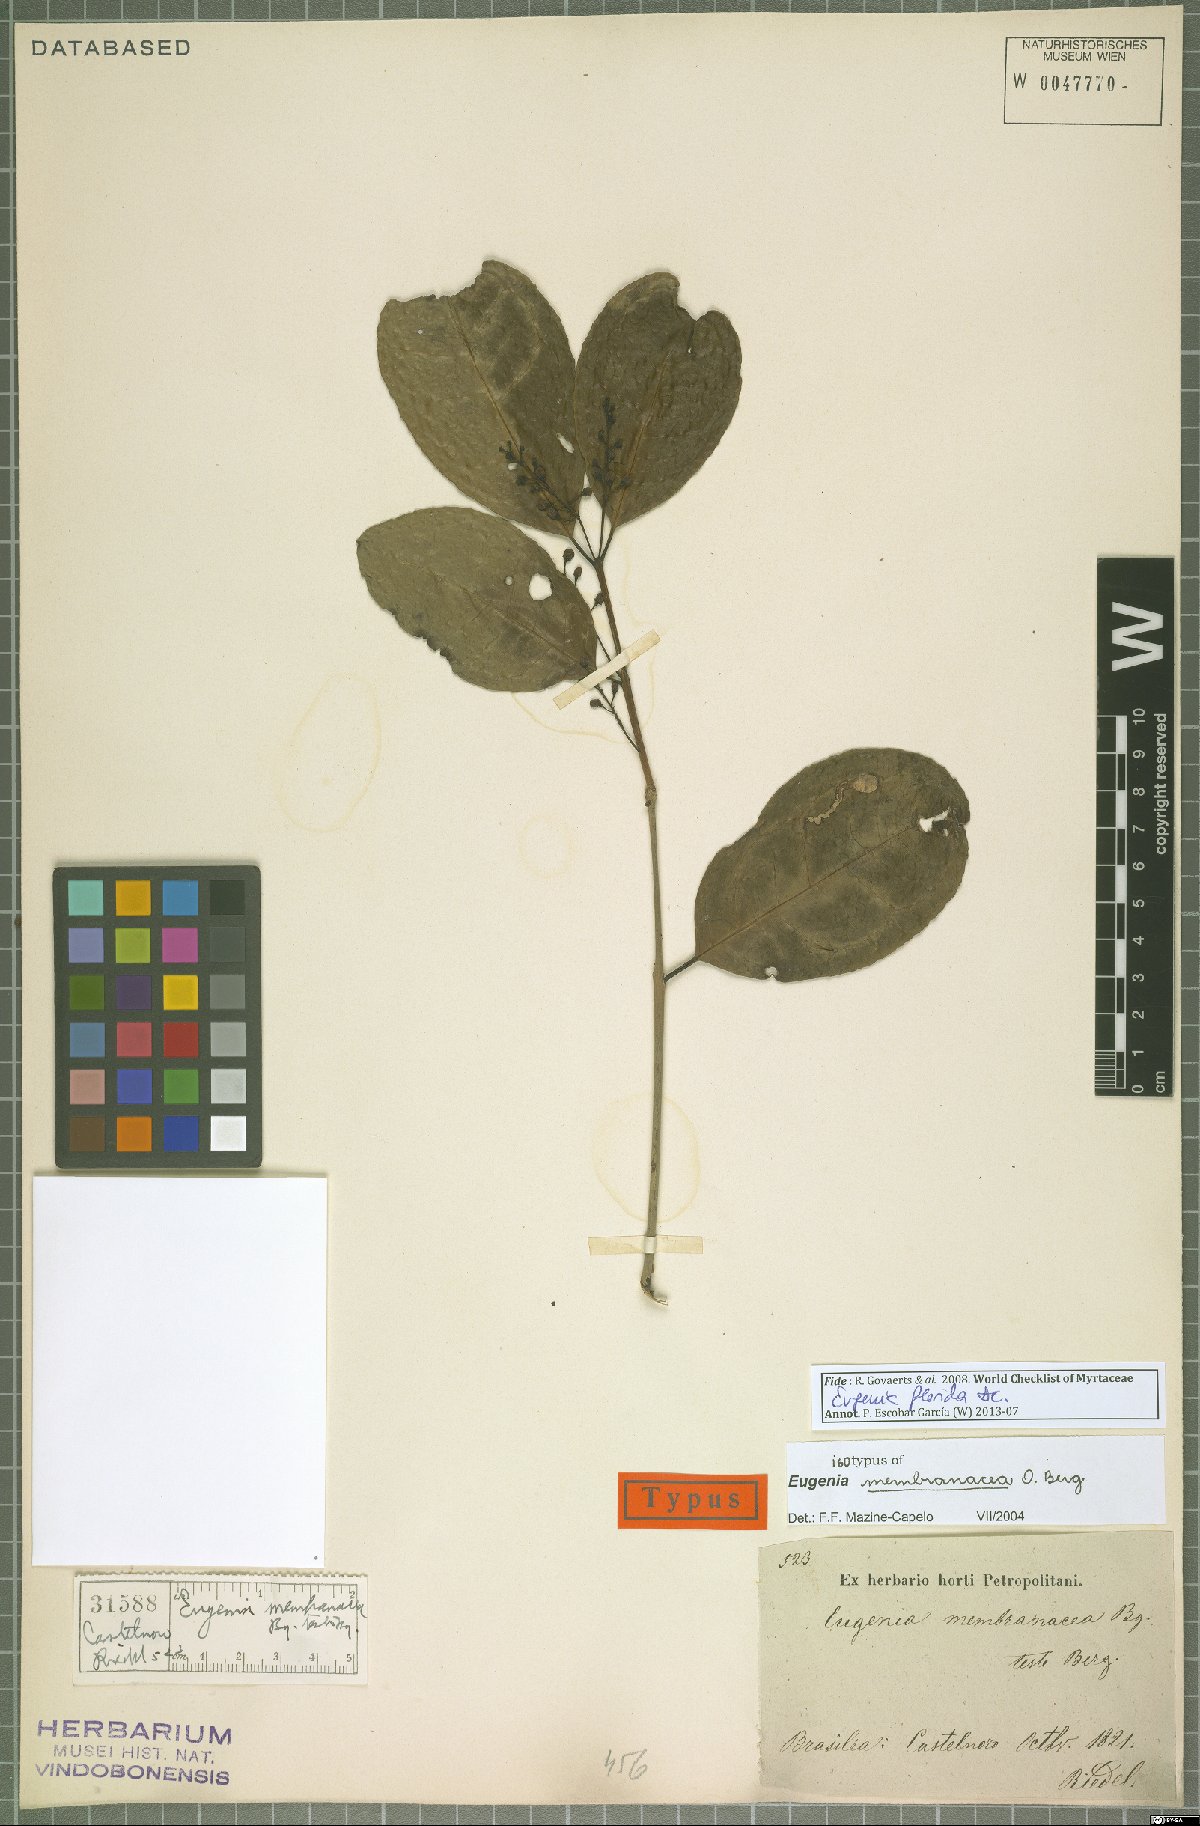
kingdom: Plantae
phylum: Tracheophyta
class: Magnoliopsida
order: Myrtales
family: Myrtaceae
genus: Eugenia
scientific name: Eugenia florida
